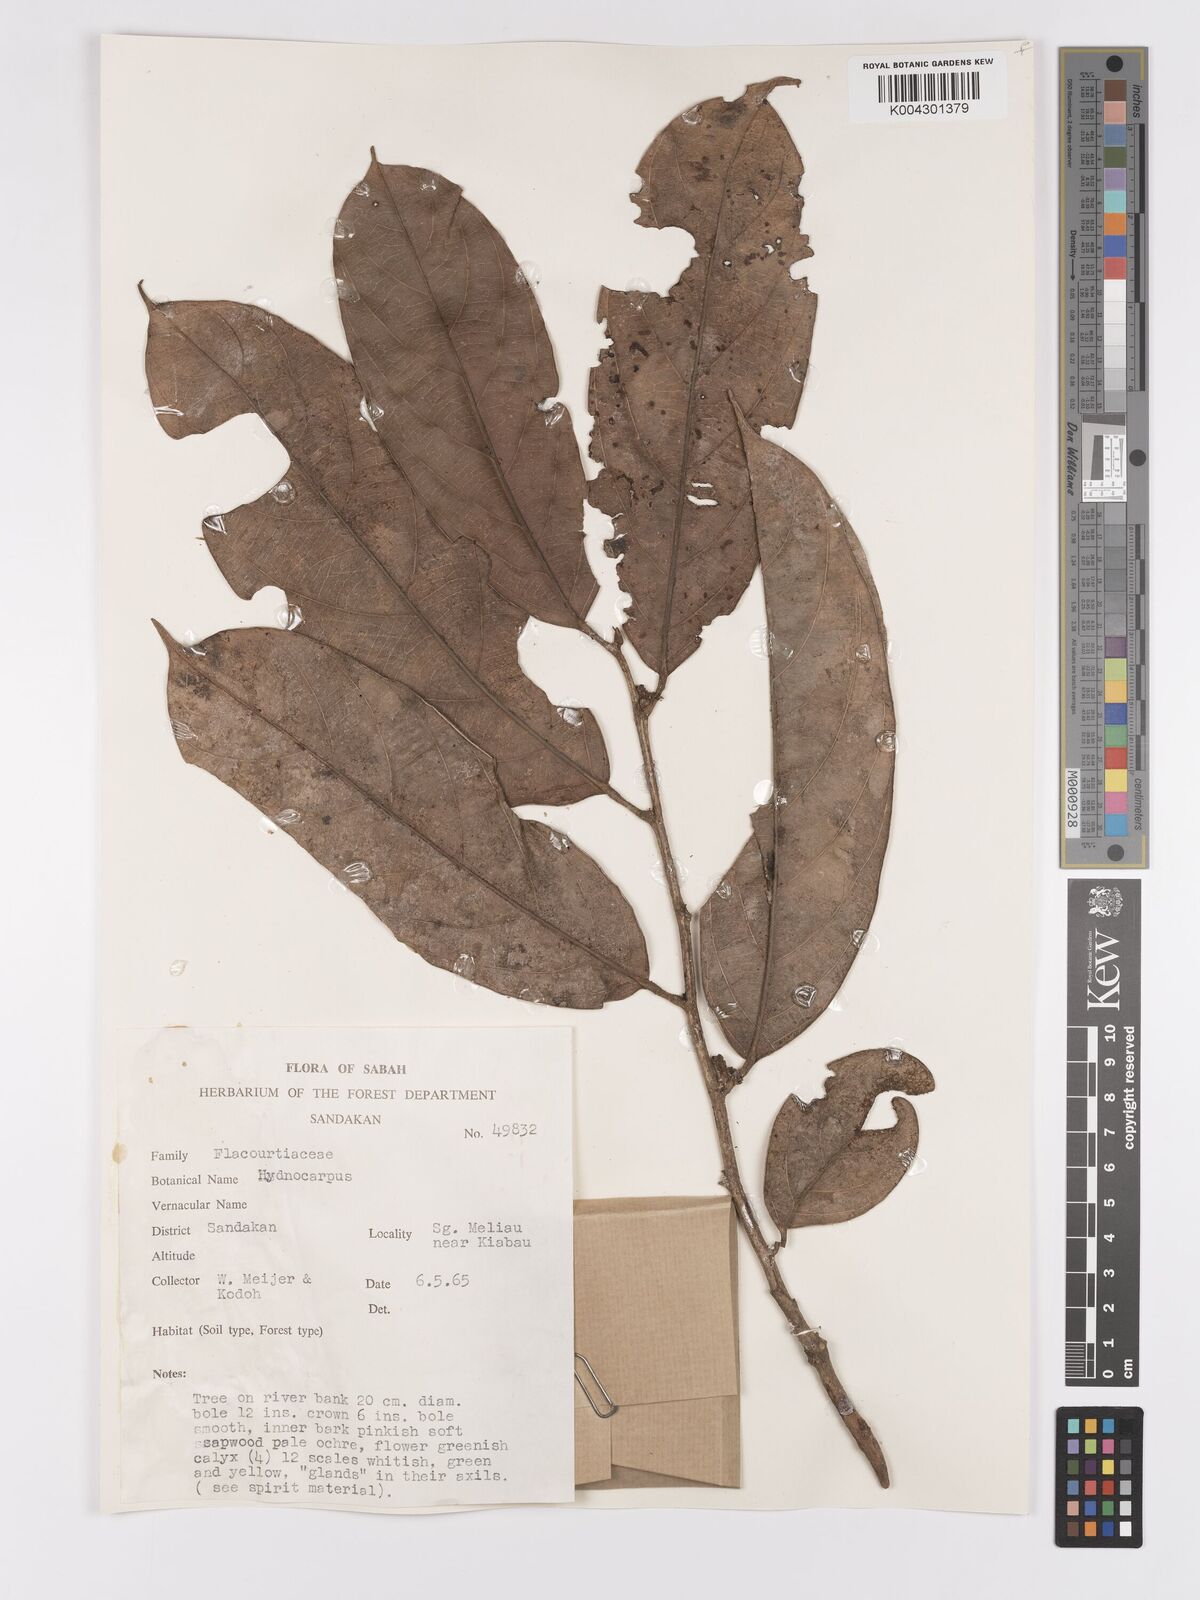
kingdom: Plantae
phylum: Tracheophyta
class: Magnoliopsida
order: Malpighiales
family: Achariaceae
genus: Hydnocarpus
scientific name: Hydnocarpus
